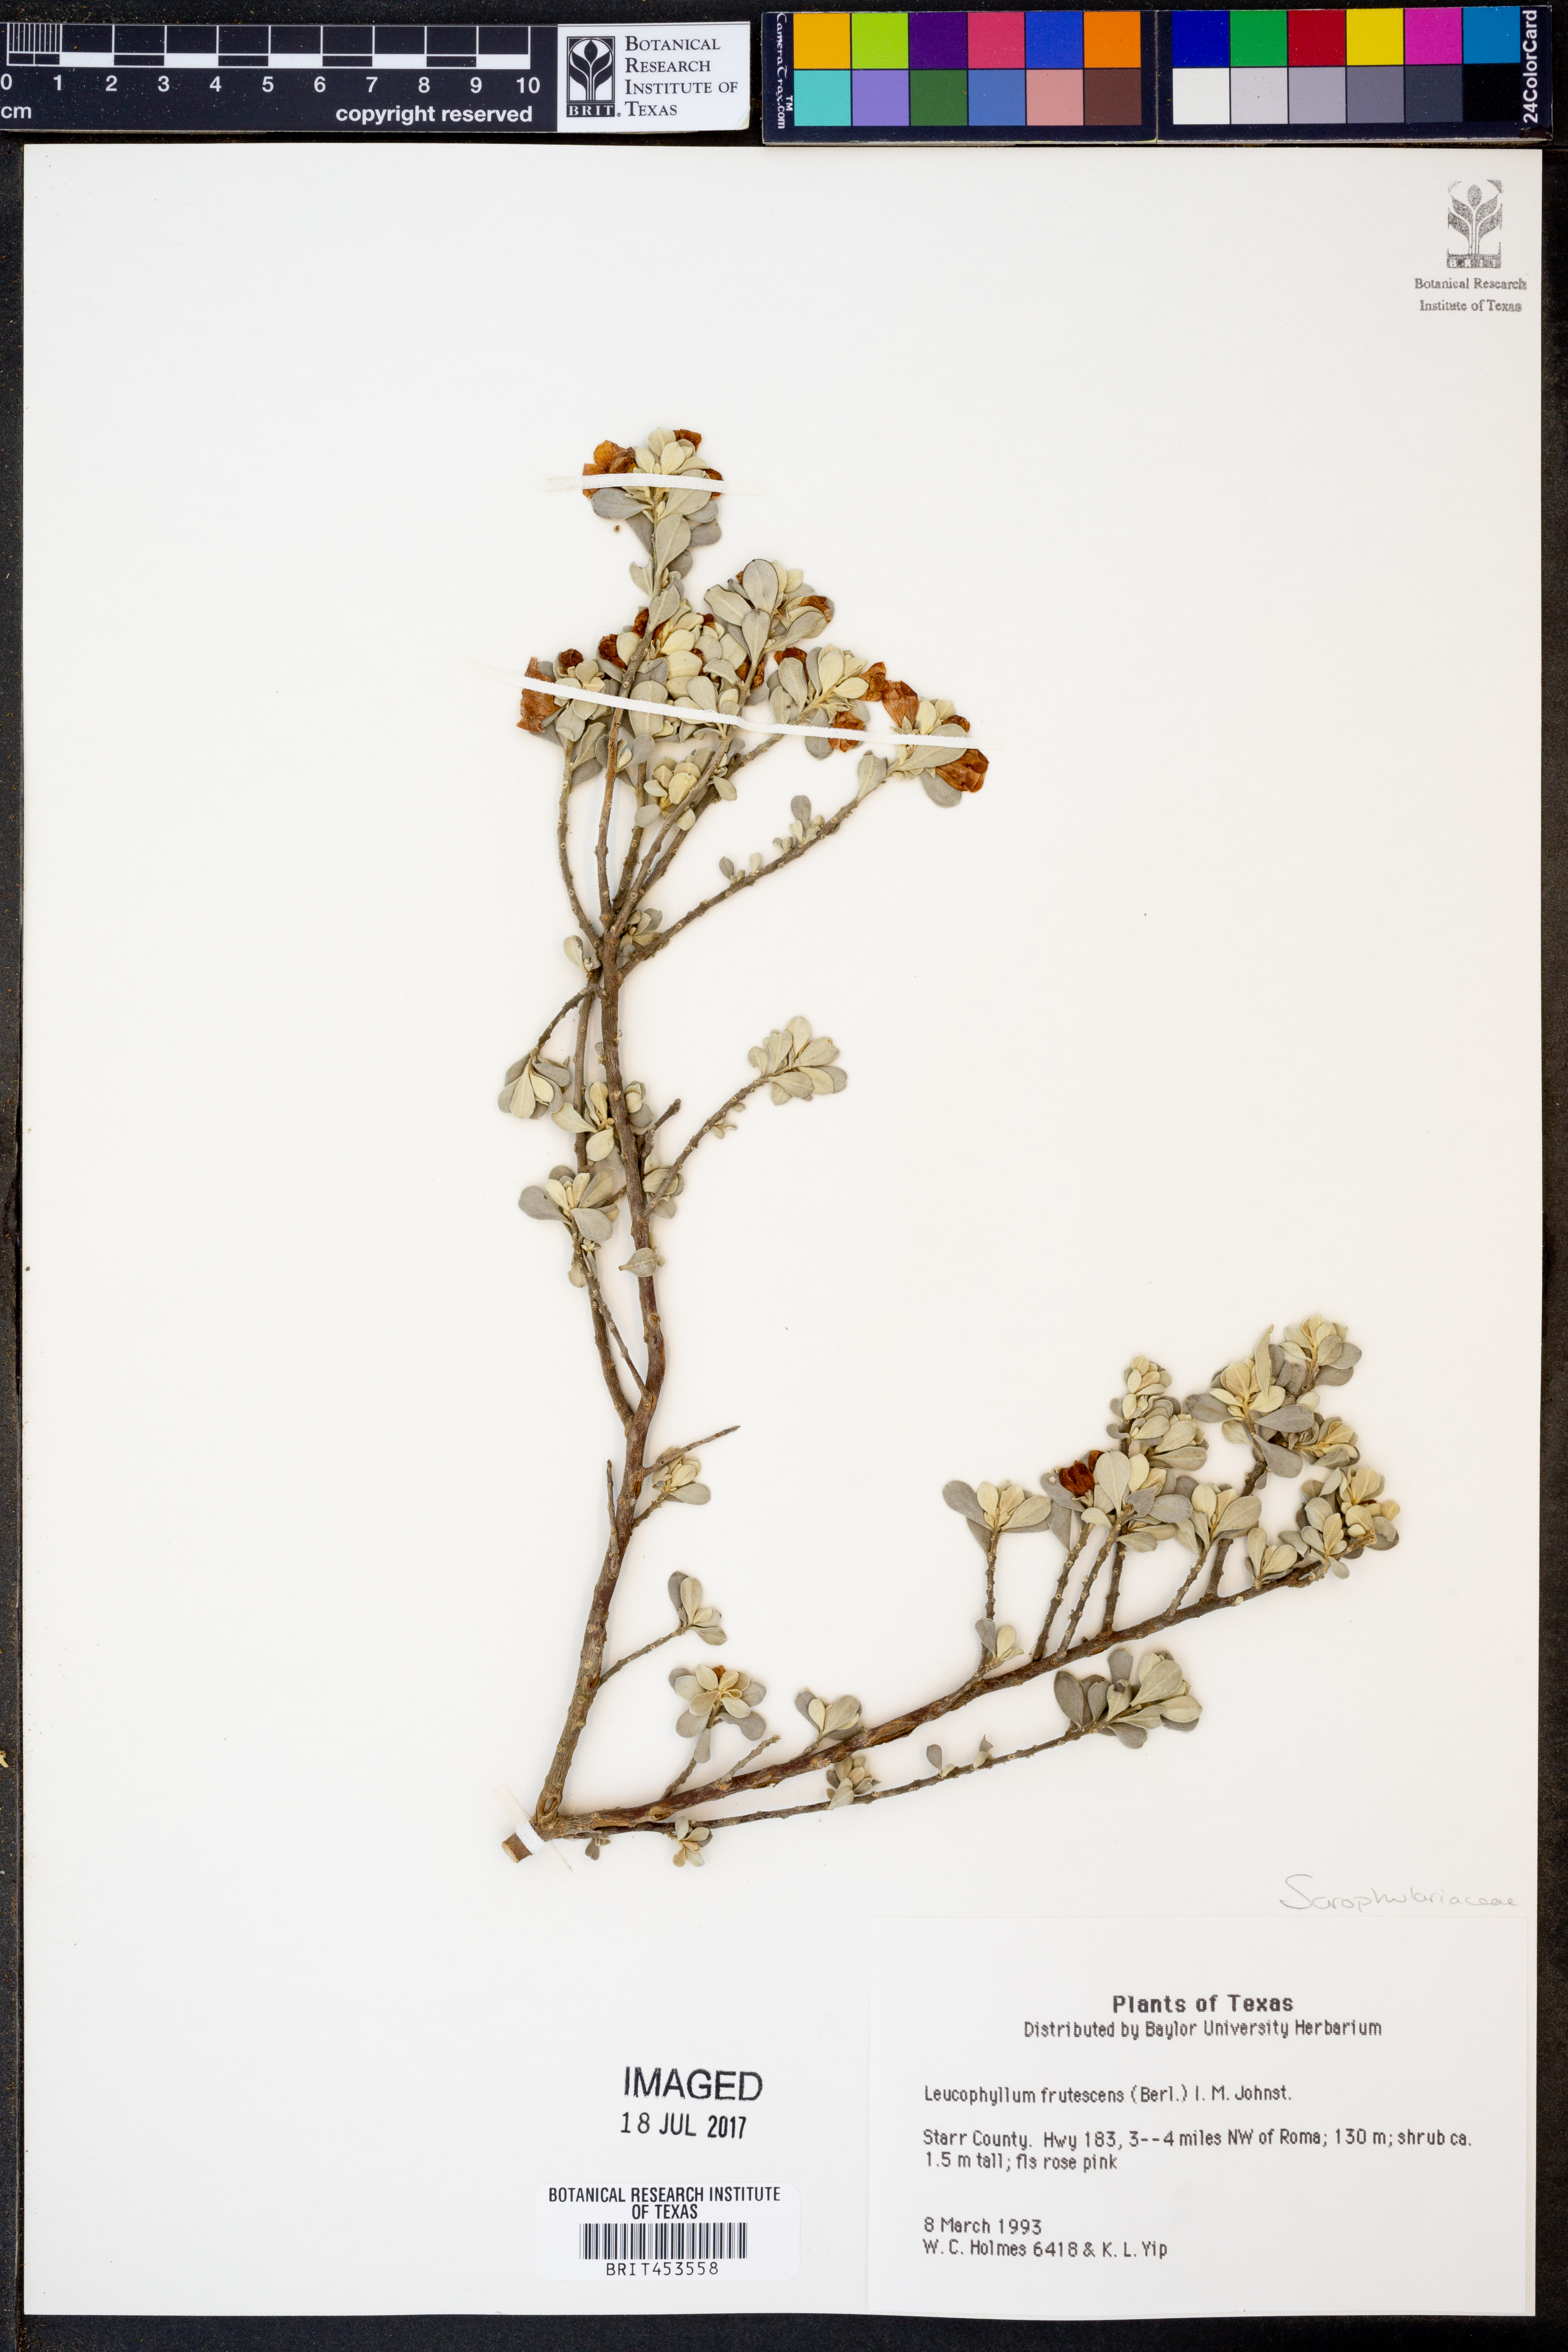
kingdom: Plantae
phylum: Tracheophyta
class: Magnoliopsida
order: Lamiales
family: Scrophulariaceae
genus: Leucophyllum
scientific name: Leucophyllum frutescens
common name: Texas silverleaf
